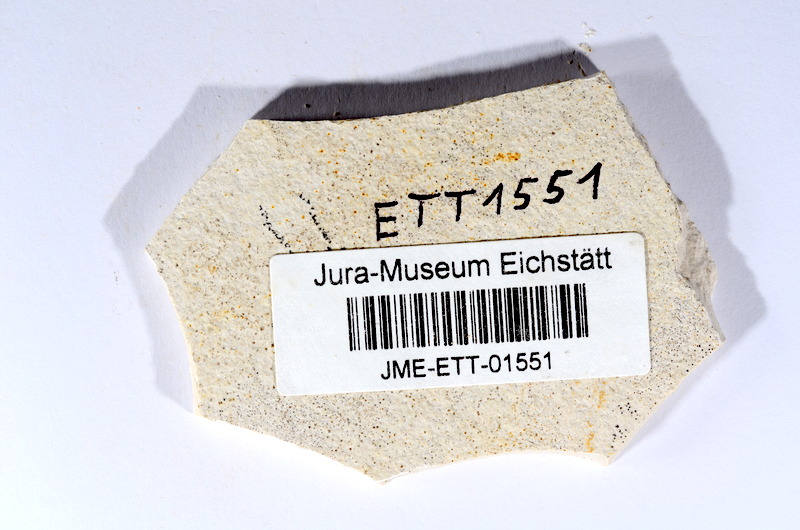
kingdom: Animalia
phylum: Chordata
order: Salmoniformes
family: Orthogonikleithridae
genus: Orthogonikleithrus
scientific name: Orthogonikleithrus hoelli
